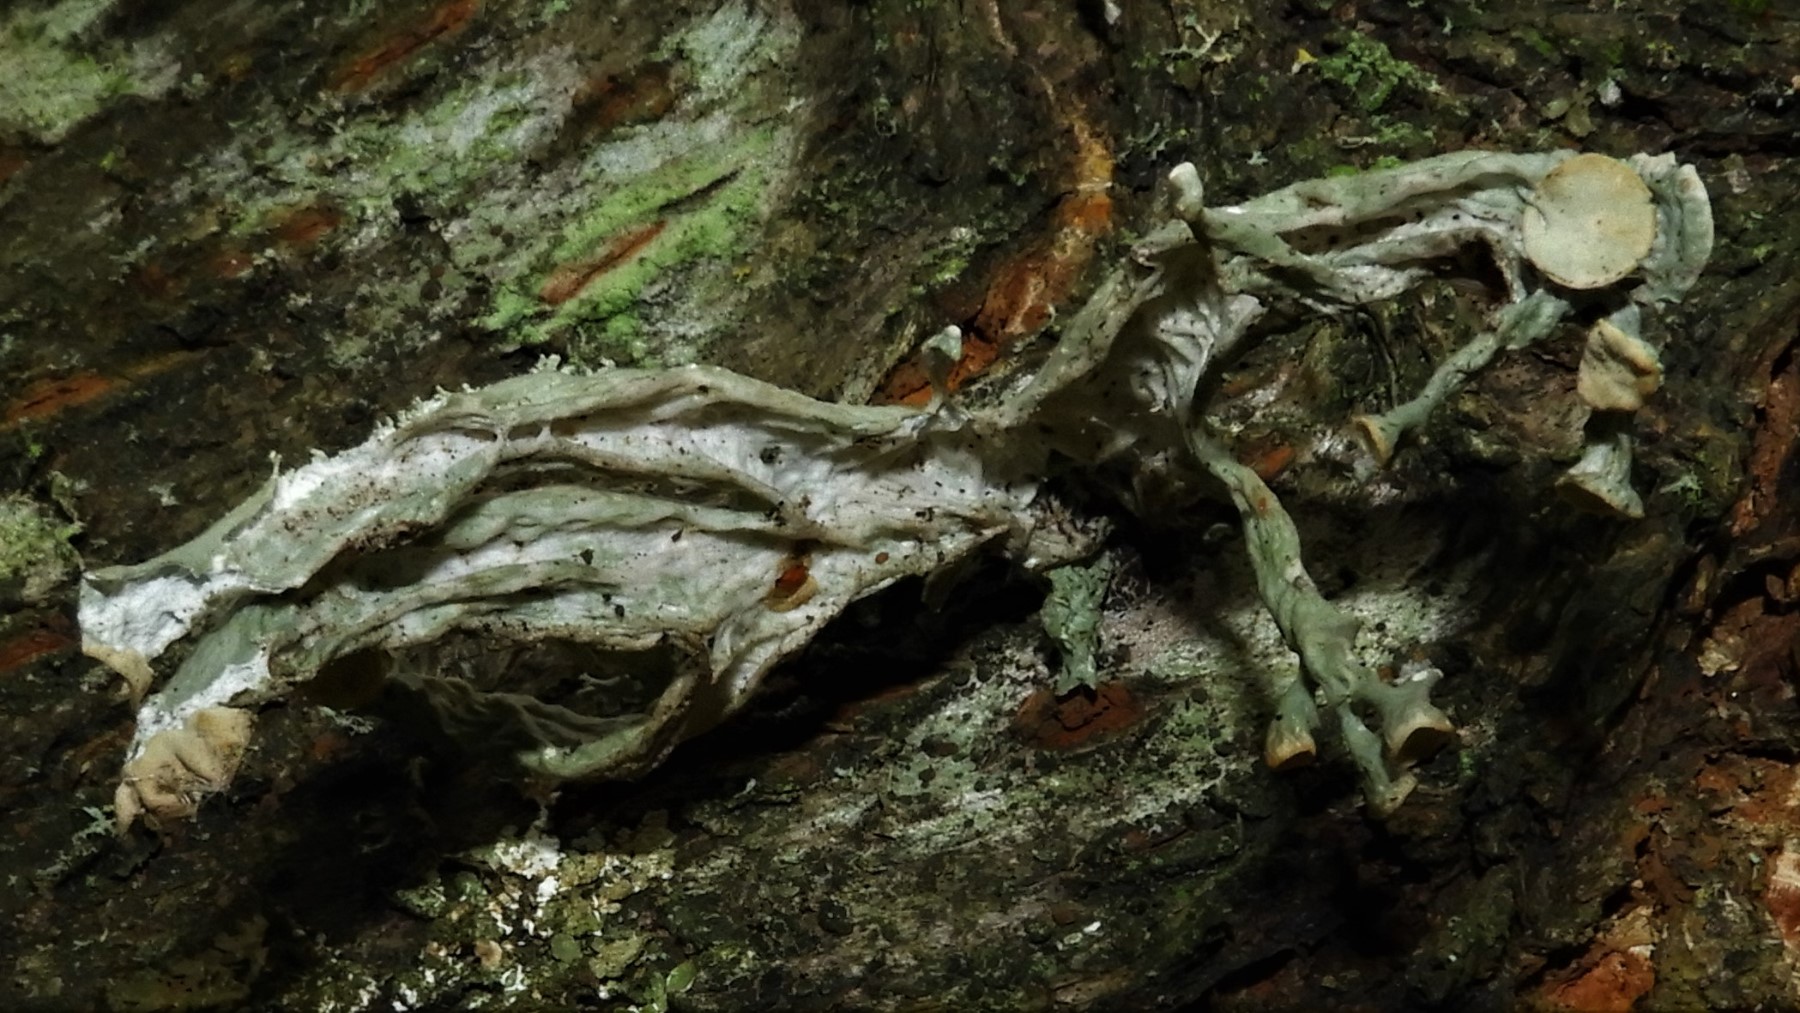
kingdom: Fungi
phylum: Ascomycota
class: Lecanoromycetes
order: Lecanorales
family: Ramalinaceae
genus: Ramalina
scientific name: Ramalina
